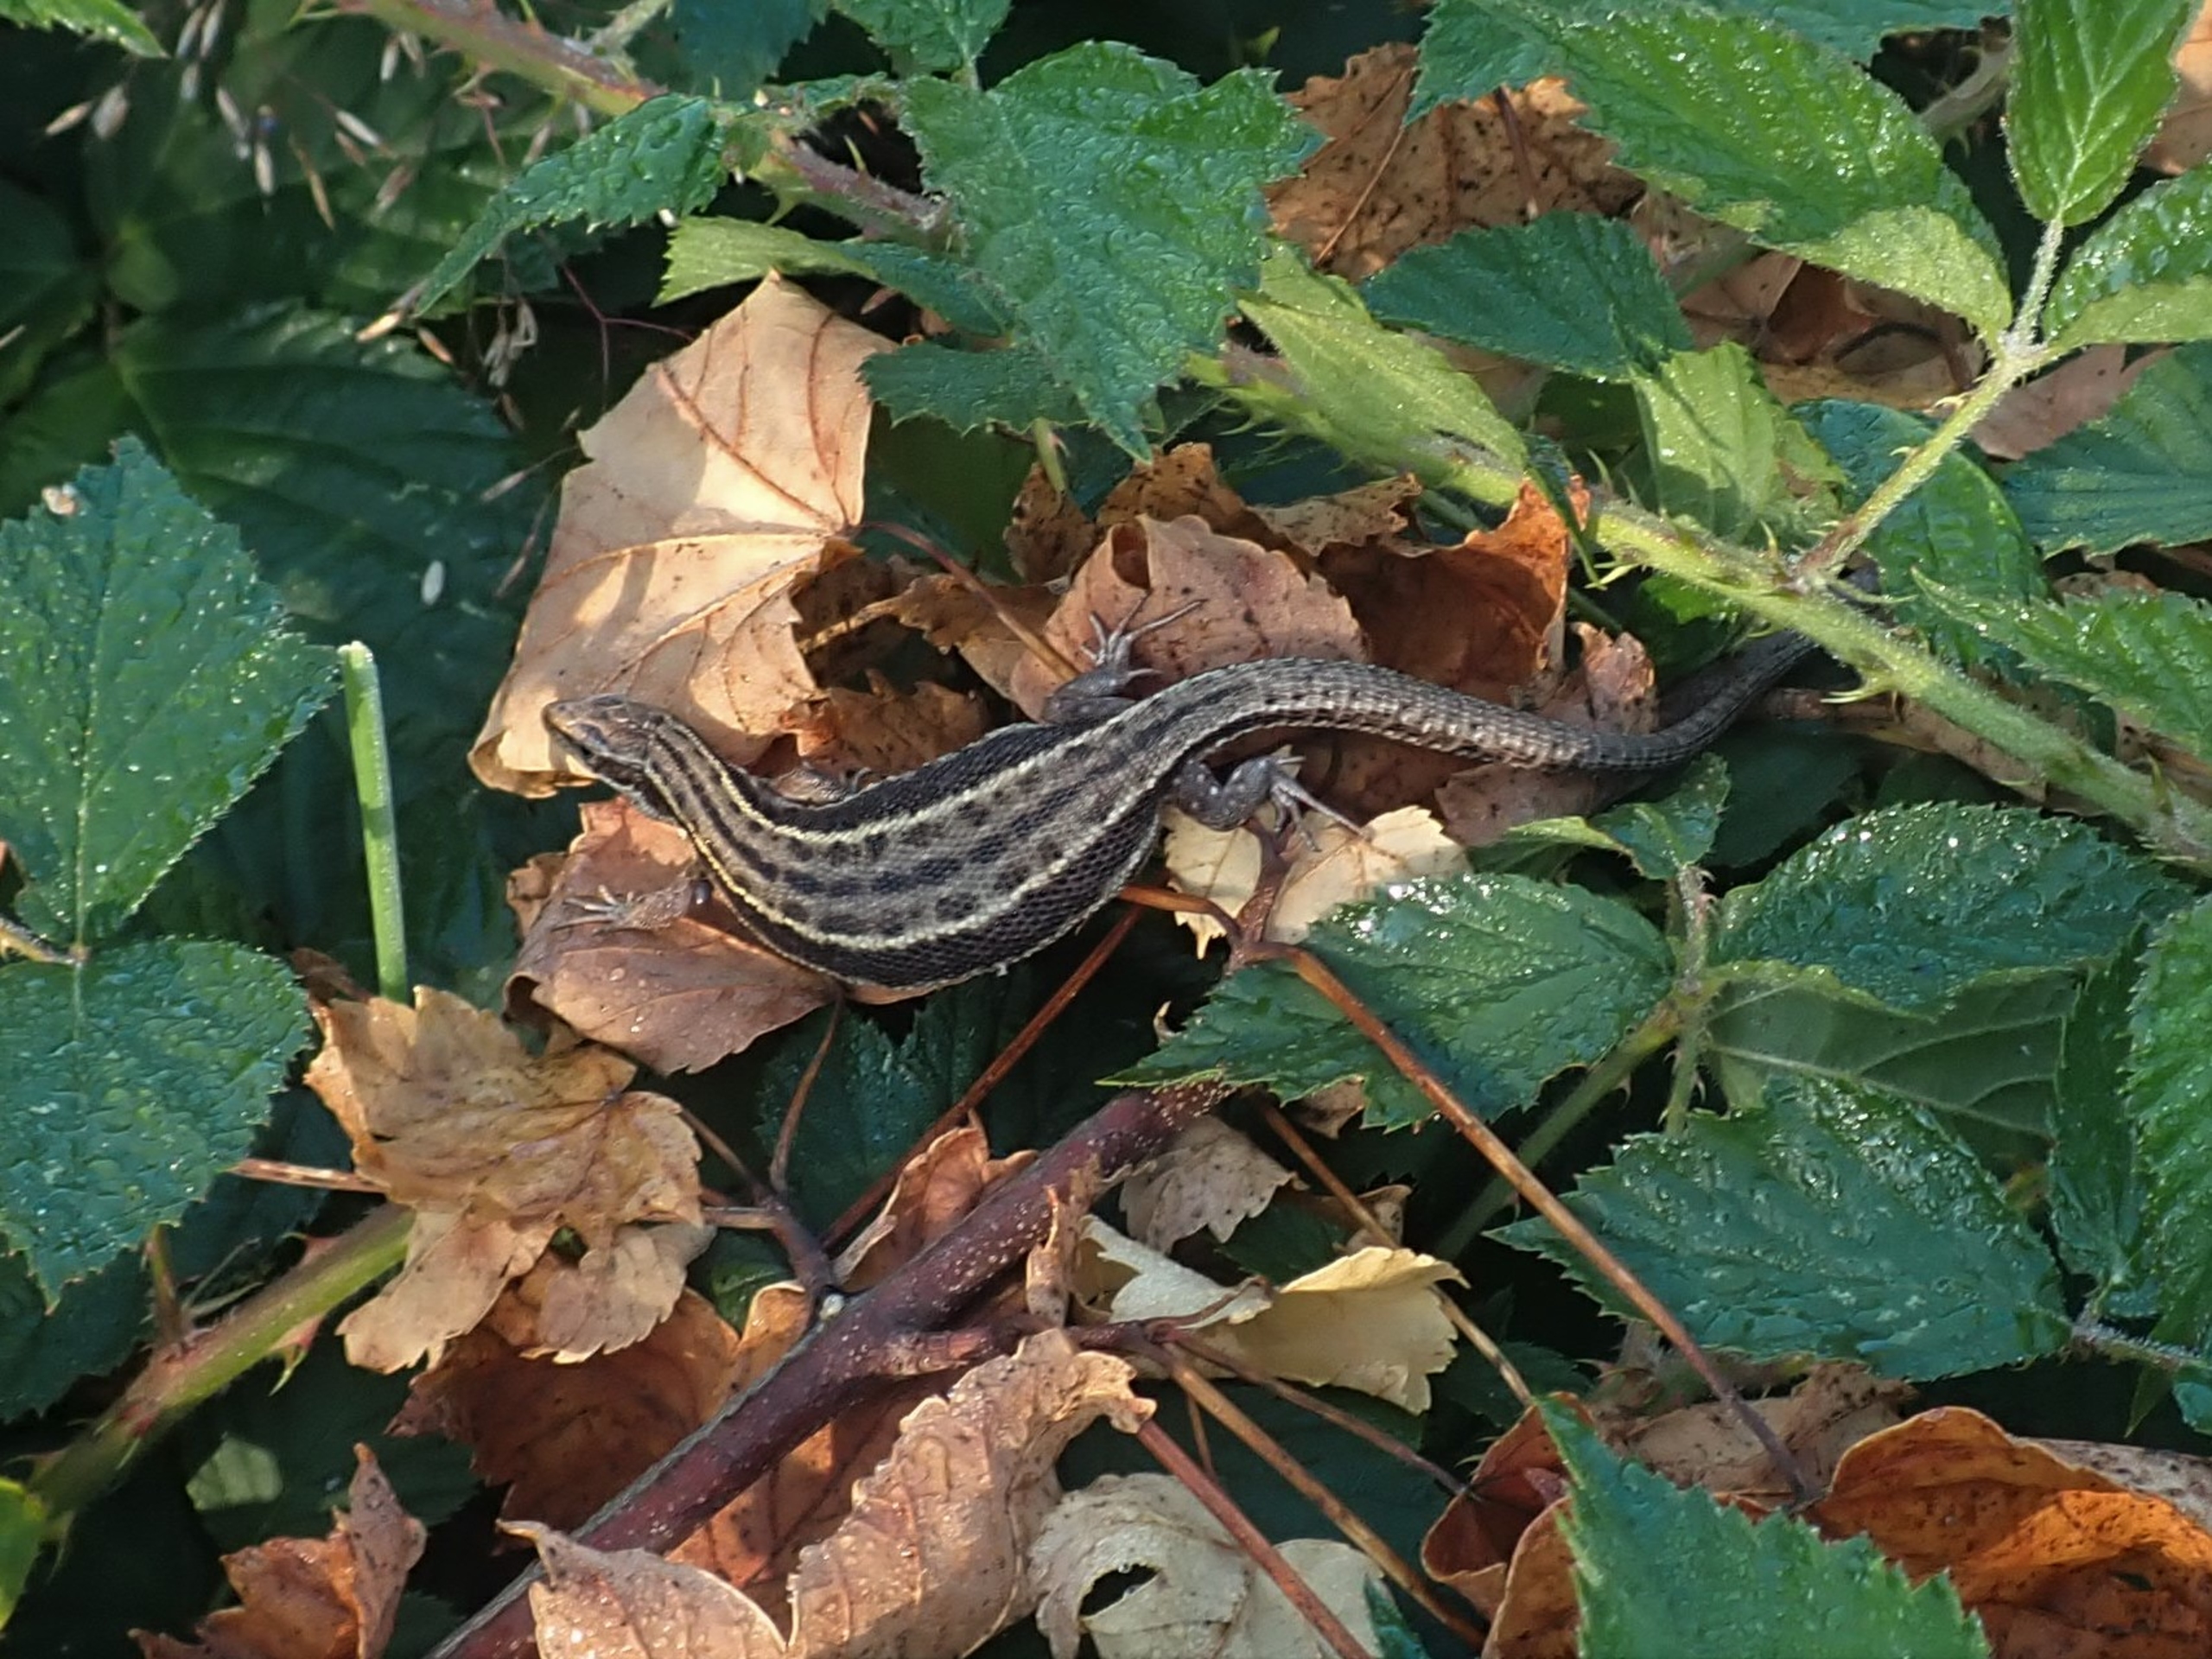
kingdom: Animalia
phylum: Chordata
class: Squamata
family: Lacertidae
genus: Zootoca
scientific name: Zootoca vivipara
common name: Skovfirben
